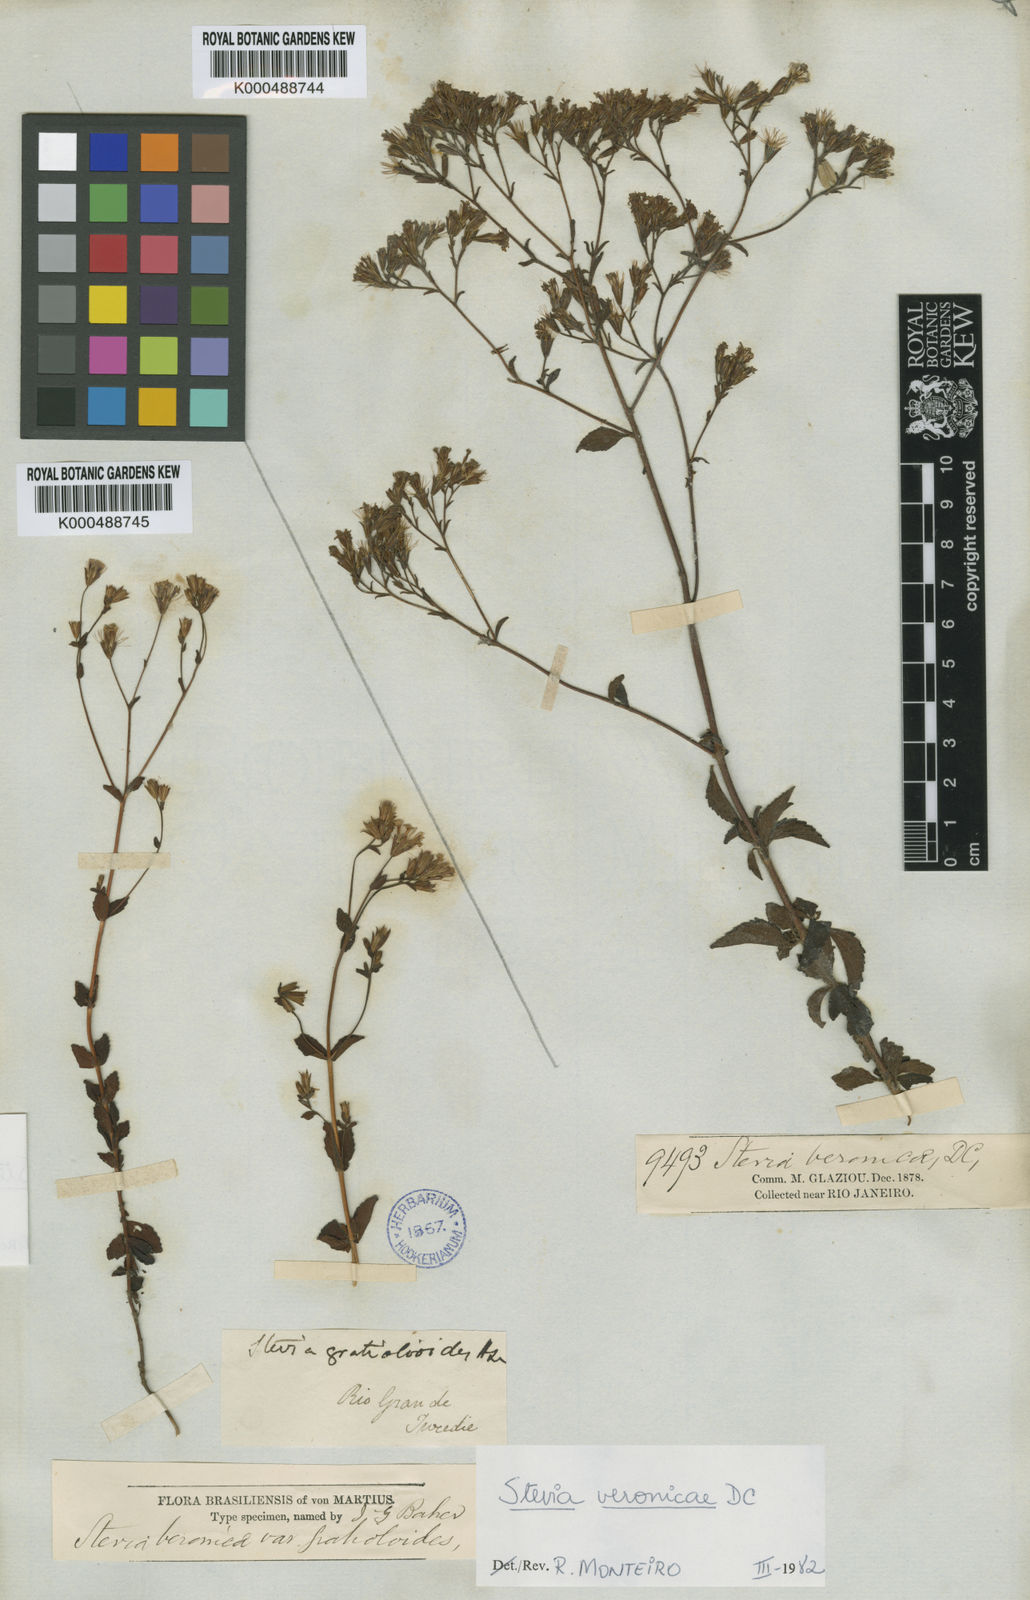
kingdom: Plantae
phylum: Tracheophyta
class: Magnoliopsida
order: Asterales
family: Asteraceae
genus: Stevia
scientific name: Stevia gratioloides
